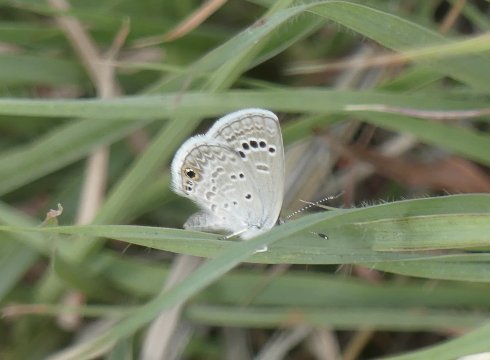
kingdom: Animalia
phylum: Arthropoda
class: Insecta
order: Lepidoptera
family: Lycaenidae
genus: Echinargus
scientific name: Echinargus isola
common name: Reakirt's Blue
